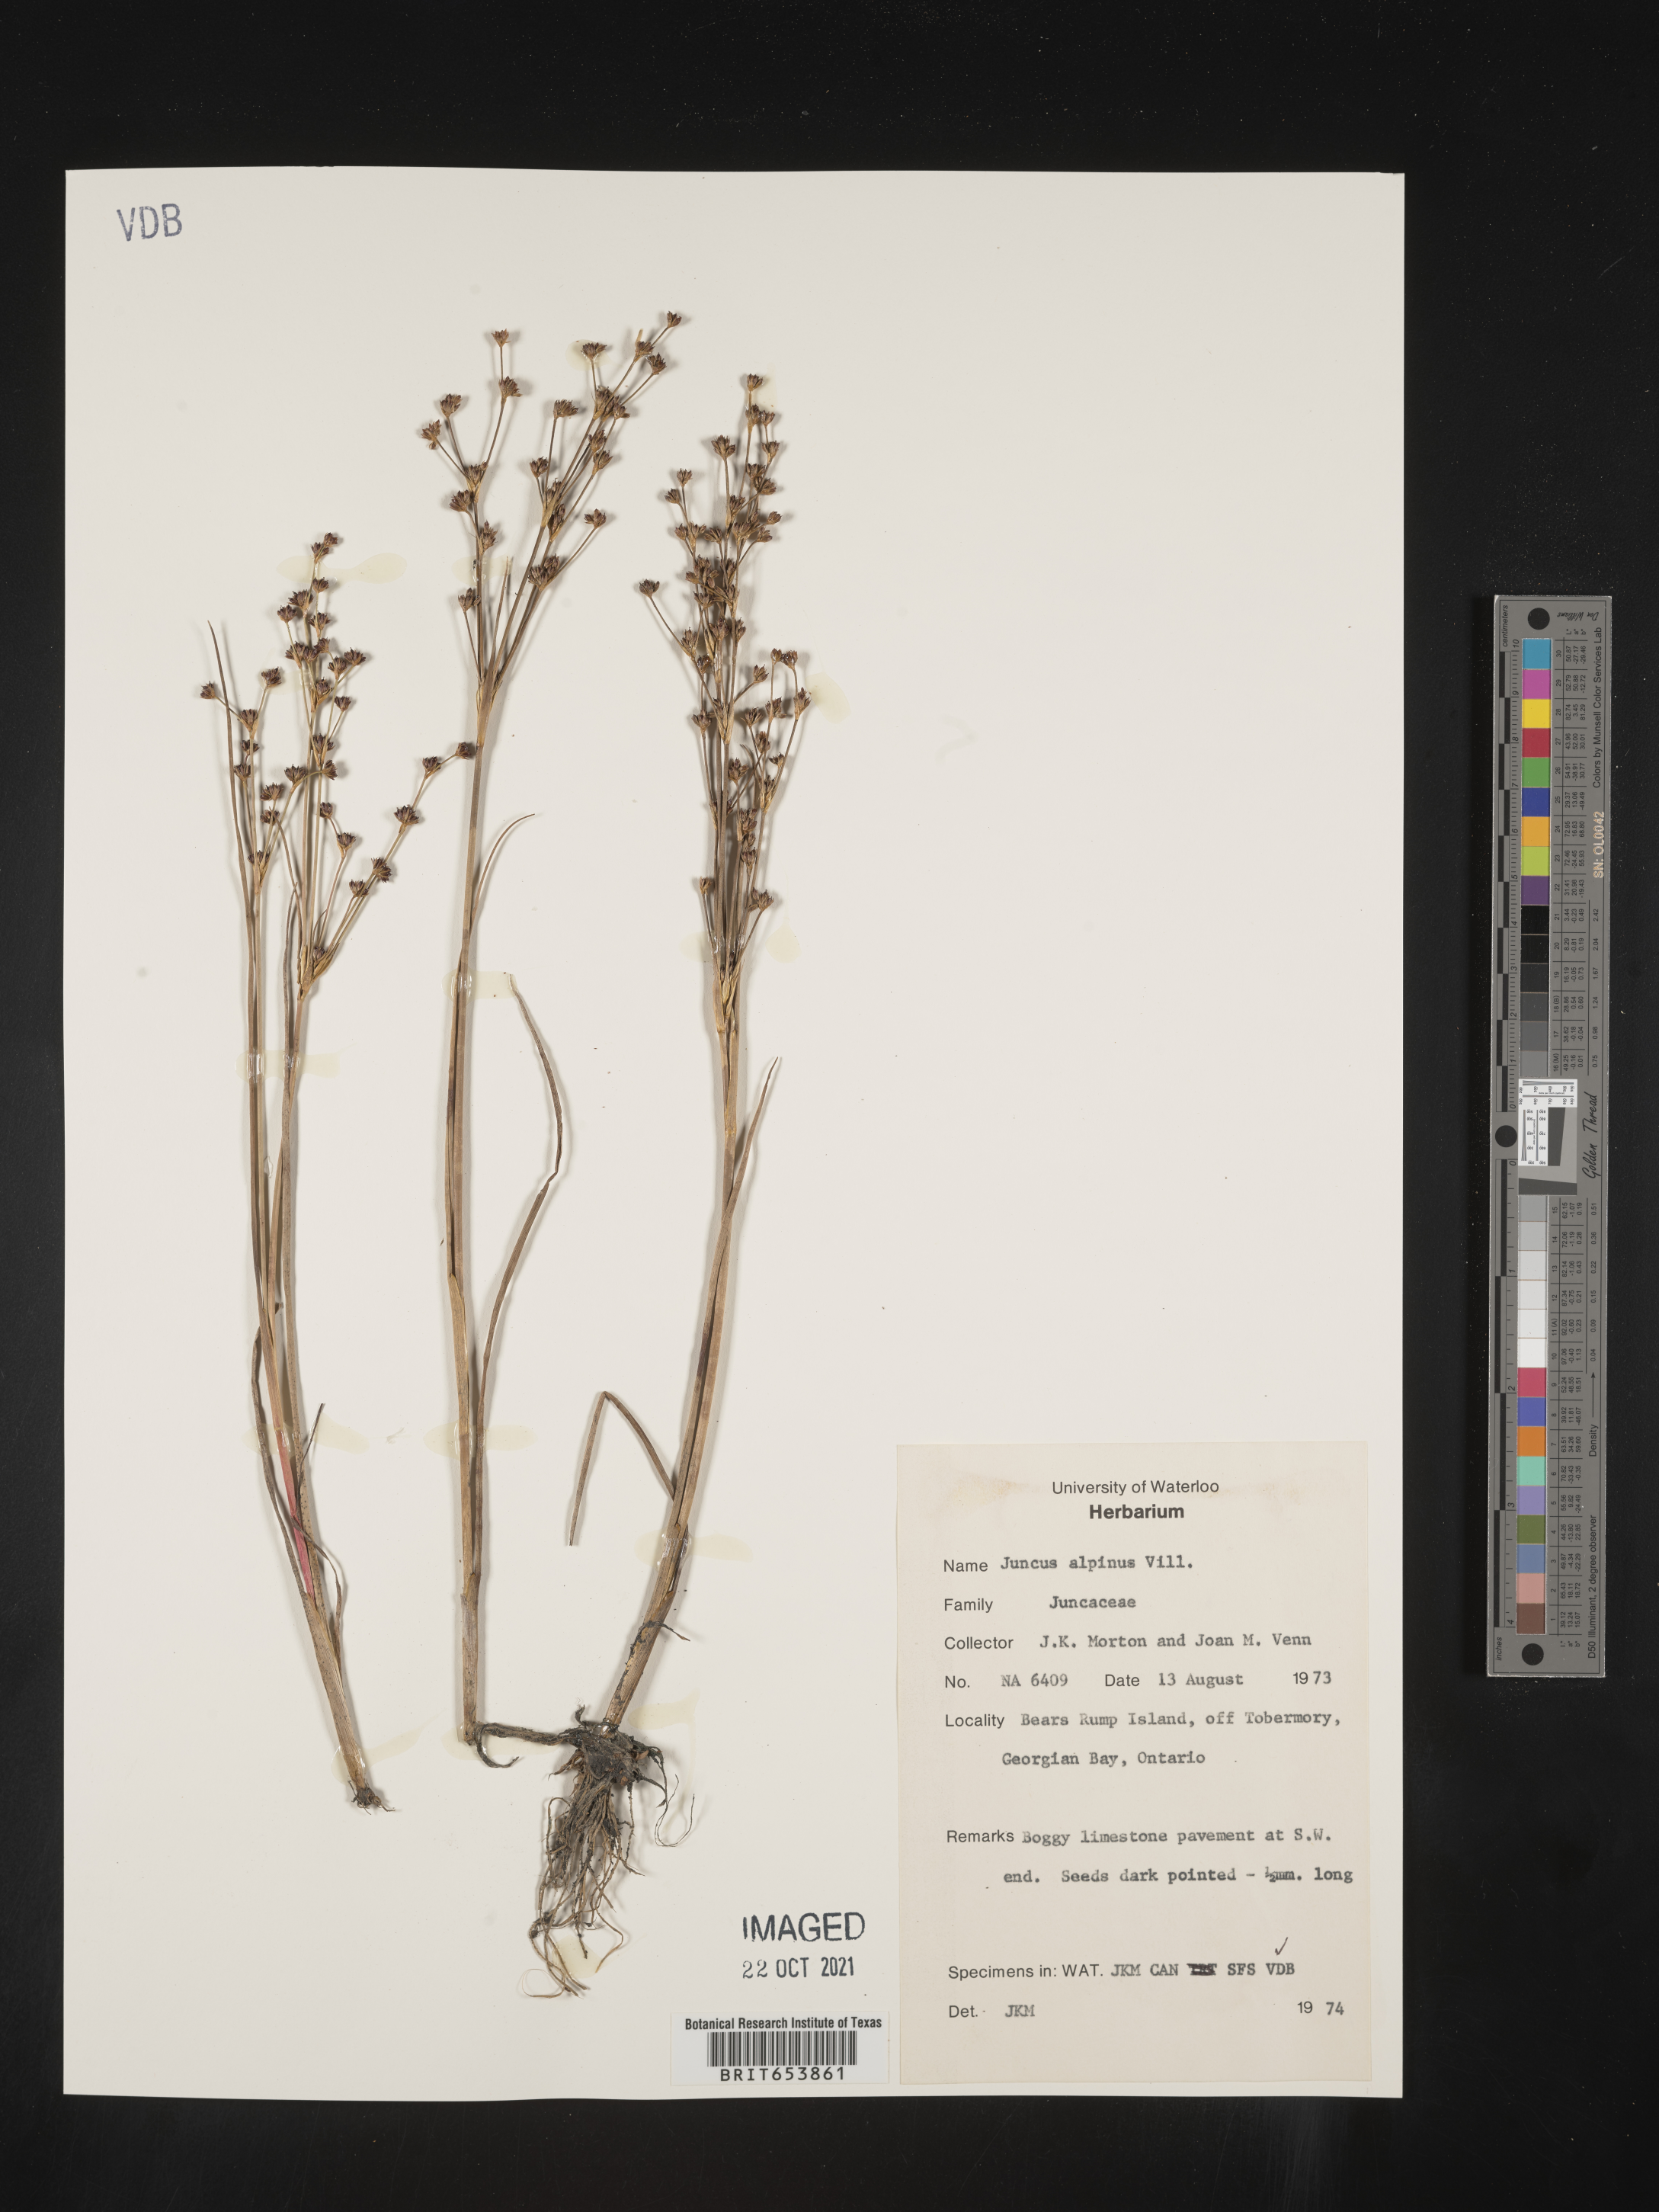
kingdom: Plantae
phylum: Tracheophyta
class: Liliopsida
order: Poales
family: Juncaceae
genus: Juncus
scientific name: Juncus alpinoarticulatus
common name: Alpine rush
